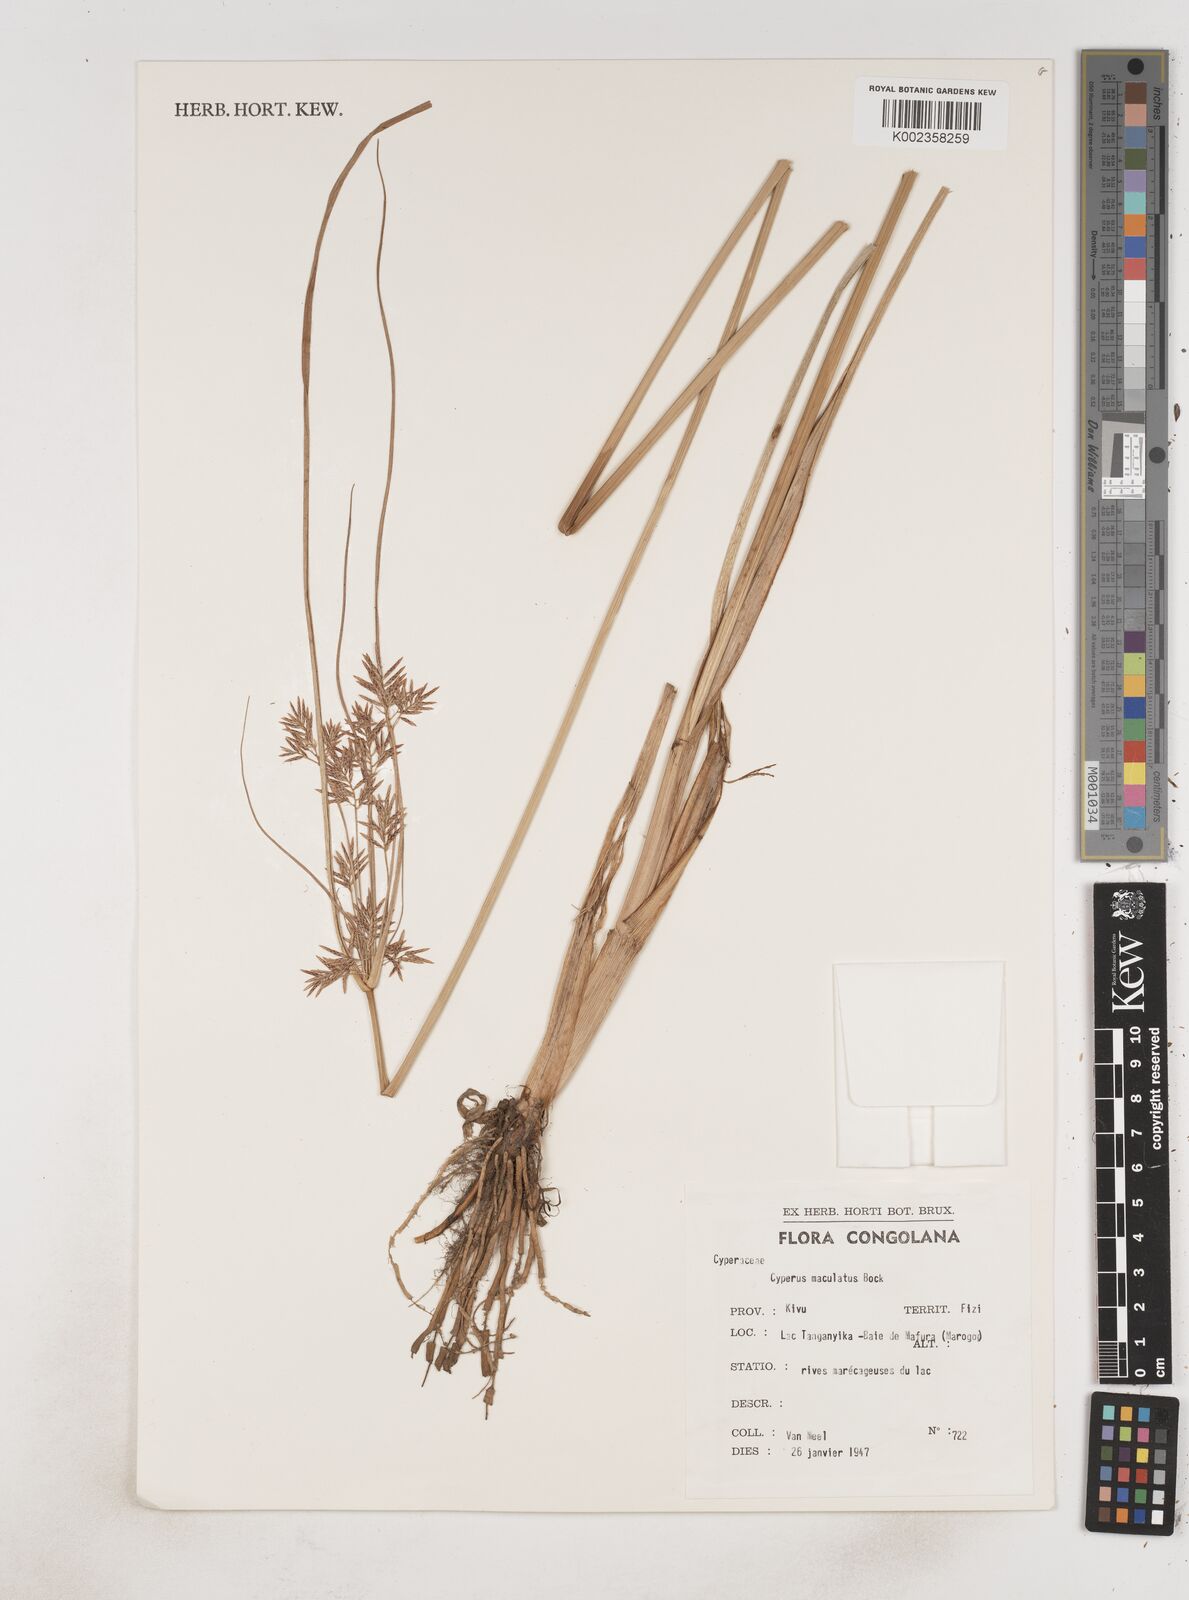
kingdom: Plantae
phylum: Tracheophyta
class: Liliopsida
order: Poales
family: Cyperaceae
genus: Cyperus
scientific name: Cyperus maculatus
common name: Maculated sedge
